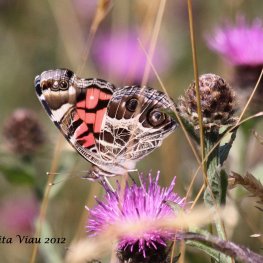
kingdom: Animalia
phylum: Arthropoda
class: Insecta
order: Lepidoptera
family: Nymphalidae
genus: Vanessa
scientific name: Vanessa virginiensis
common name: American Lady
